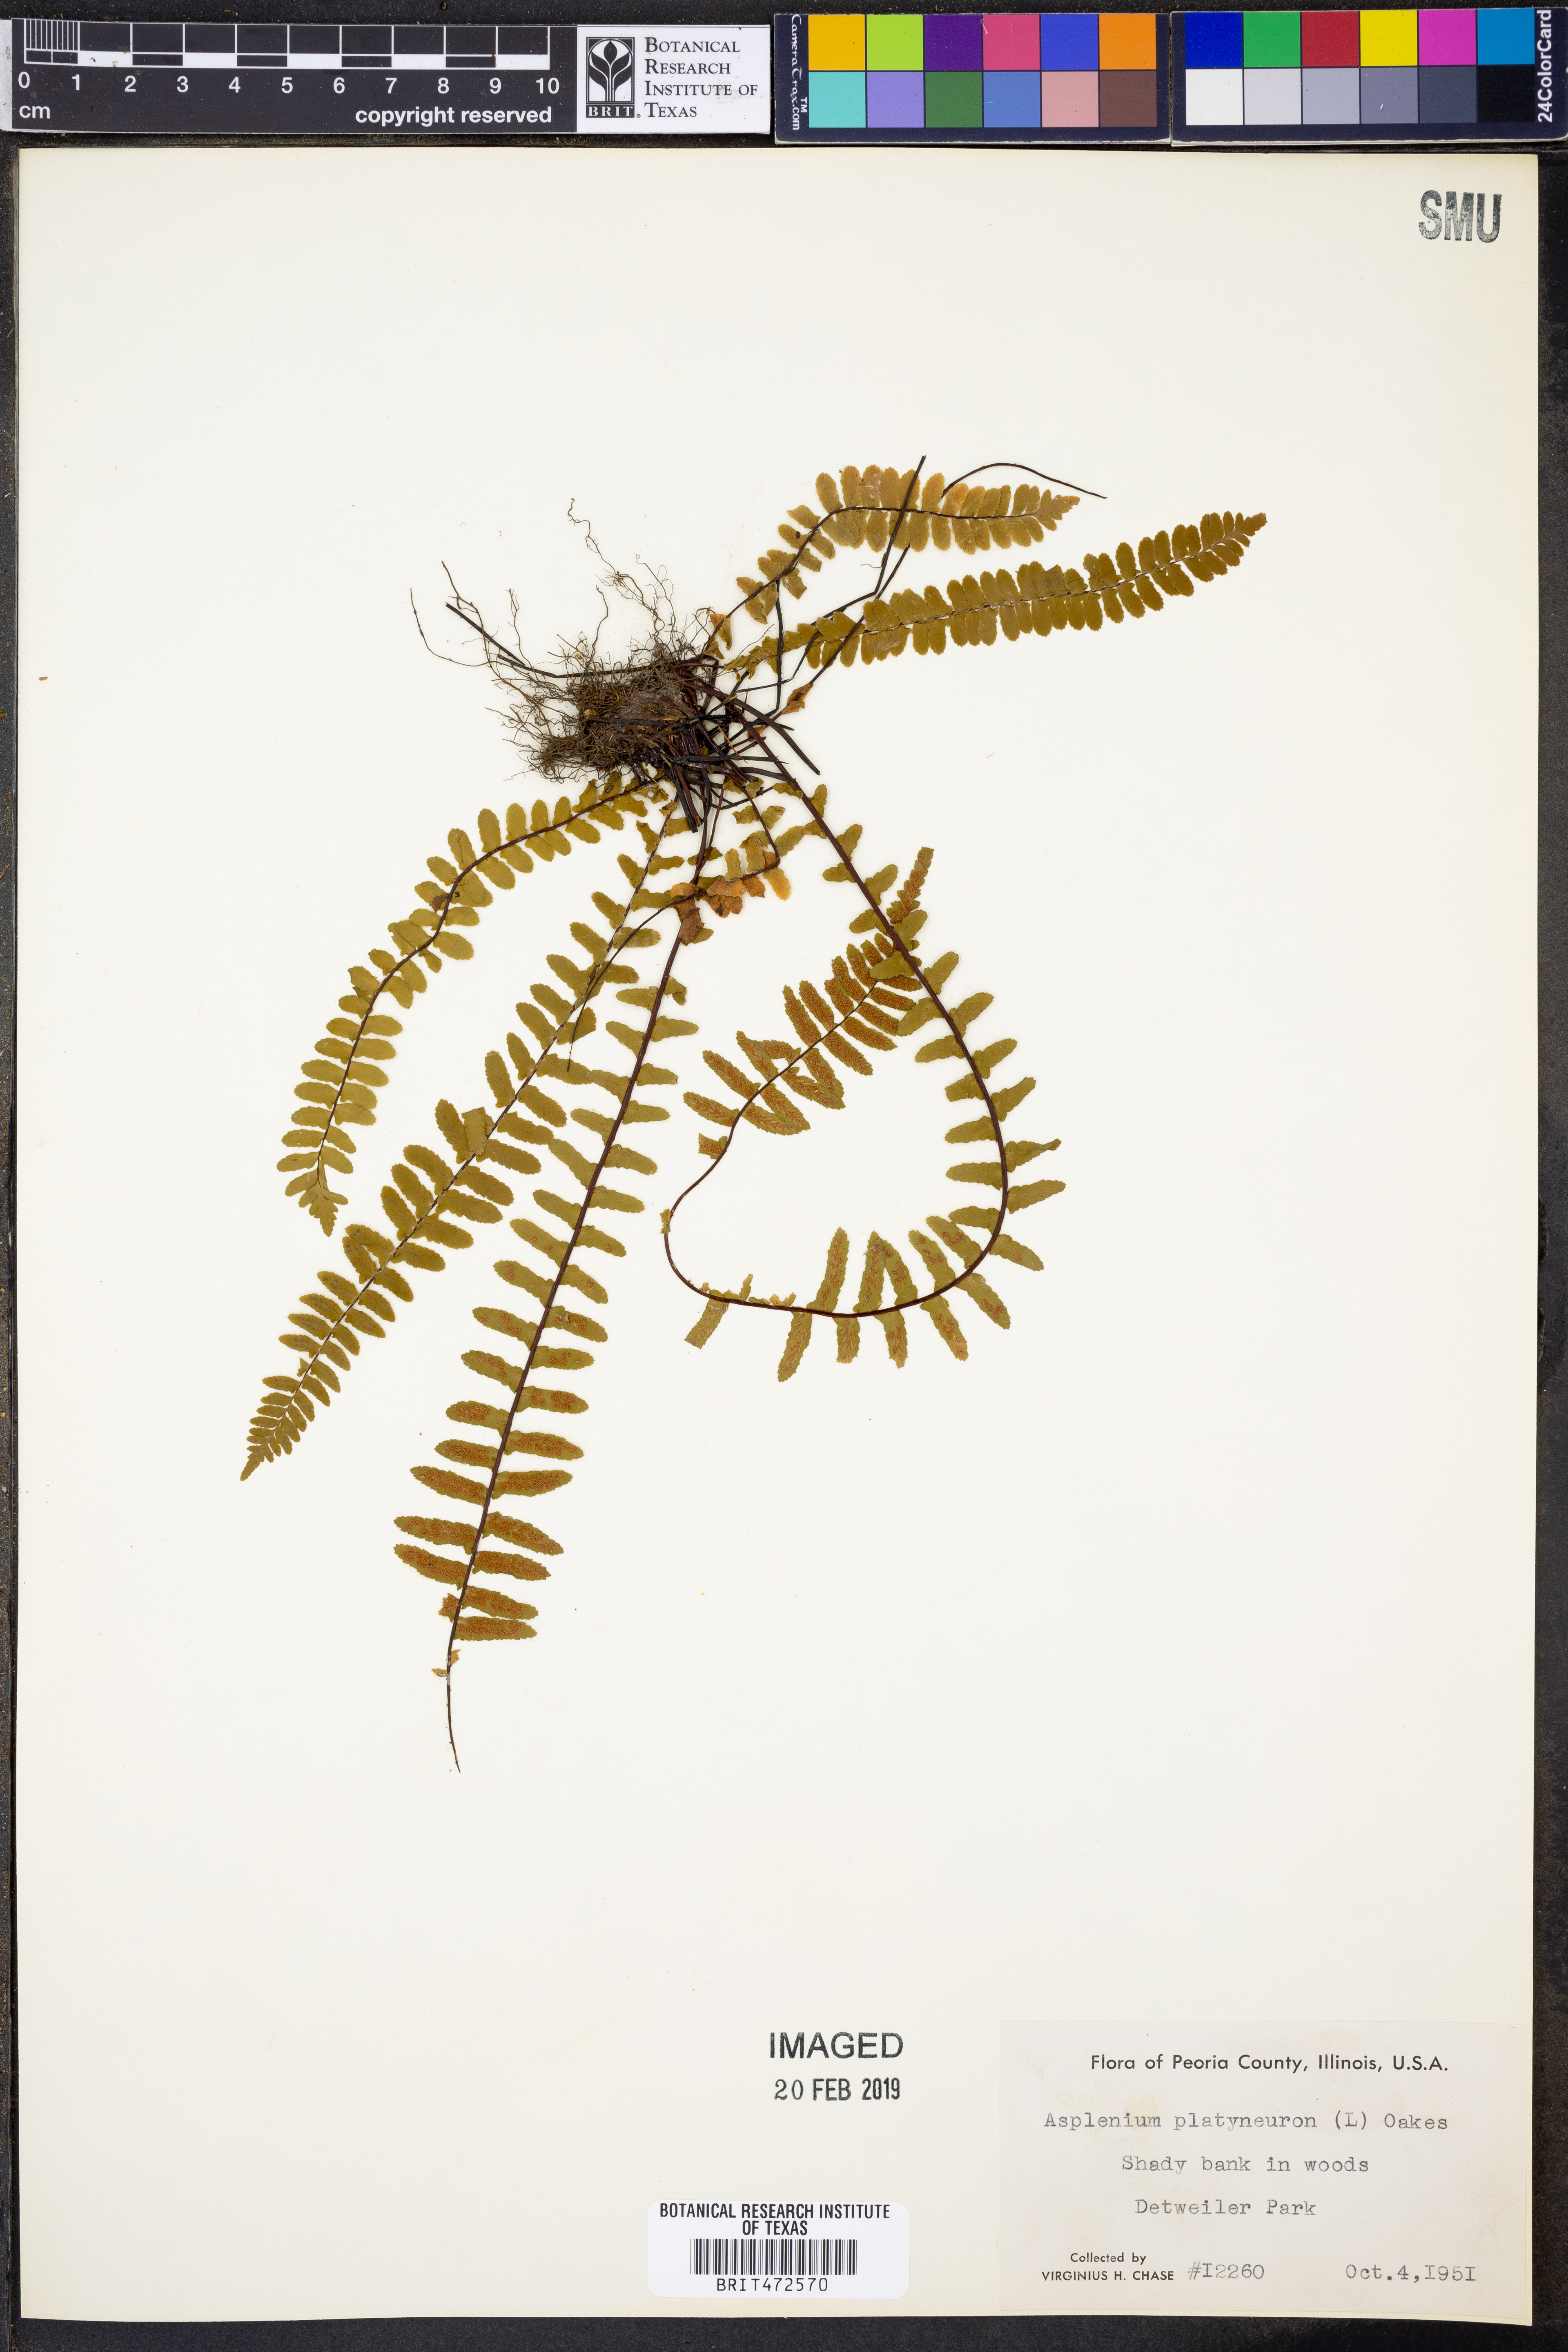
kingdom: Plantae
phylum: Tracheophyta
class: Polypodiopsida
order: Polypodiales
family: Aspleniaceae
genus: Asplenium
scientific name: Asplenium platyneuron
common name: Ebony spleenwort
